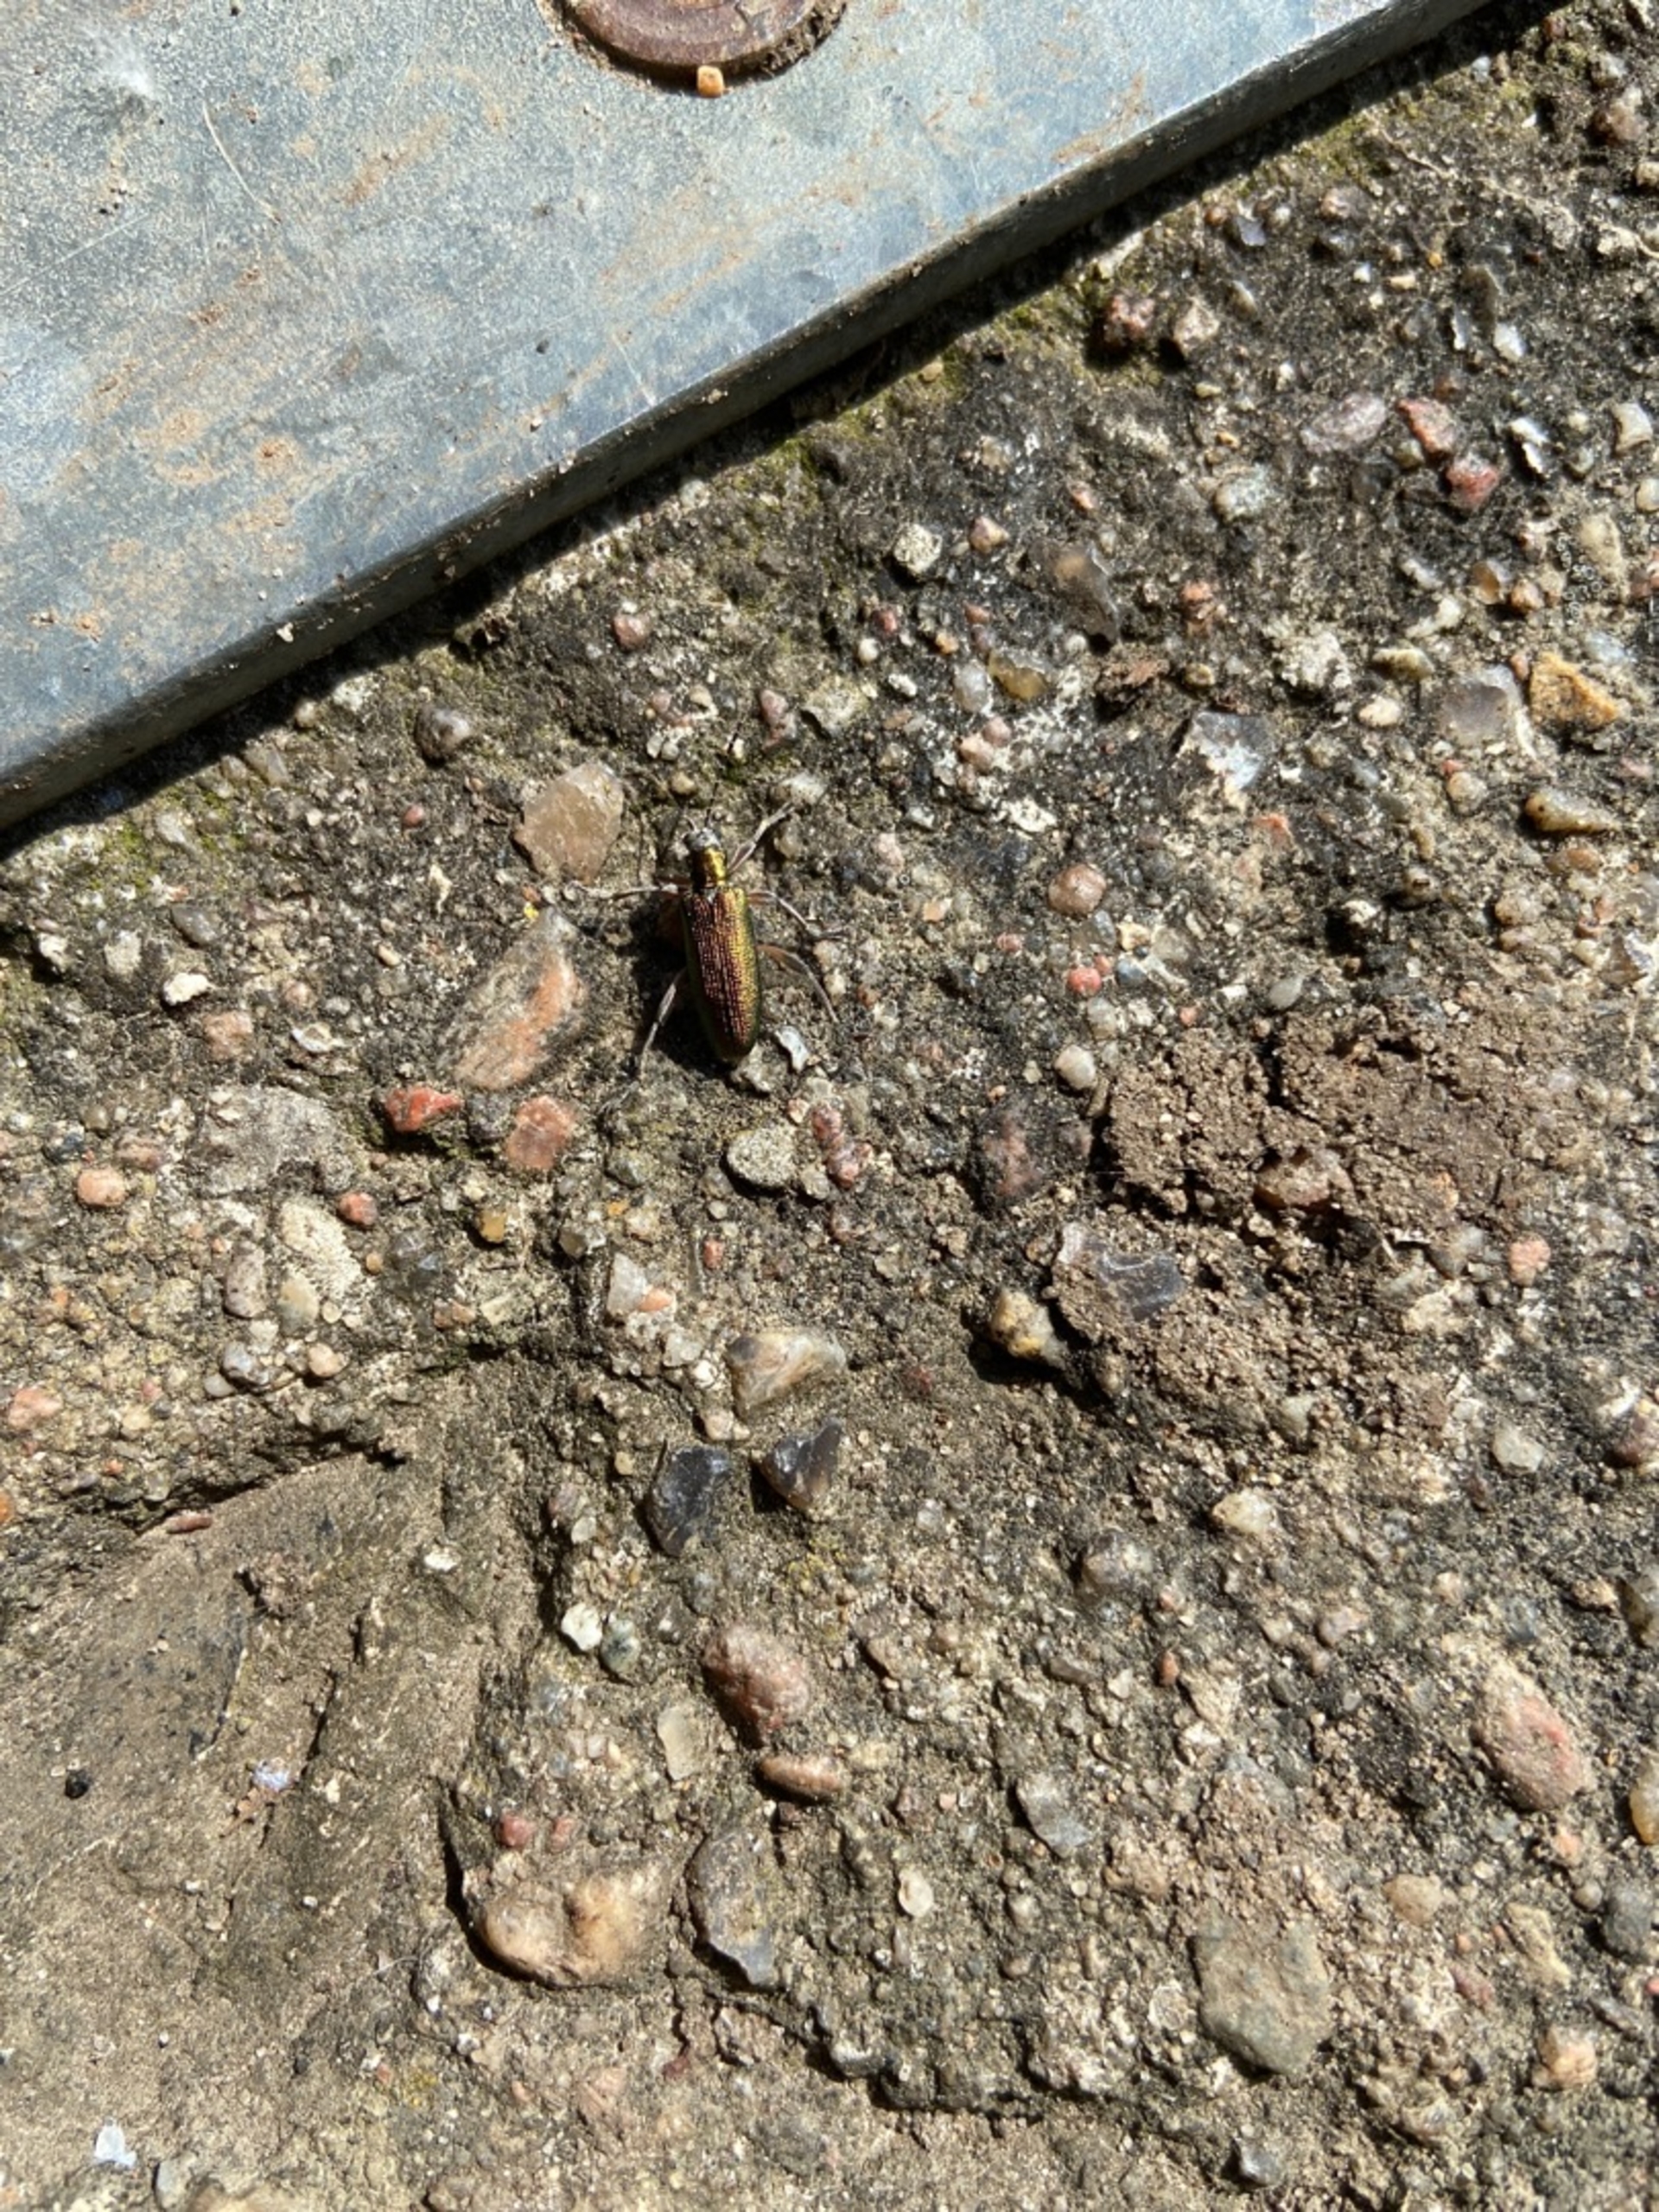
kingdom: Animalia
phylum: Arthropoda
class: Insecta
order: Coleoptera
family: Chrysomelidae
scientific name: Chrysomelidae
